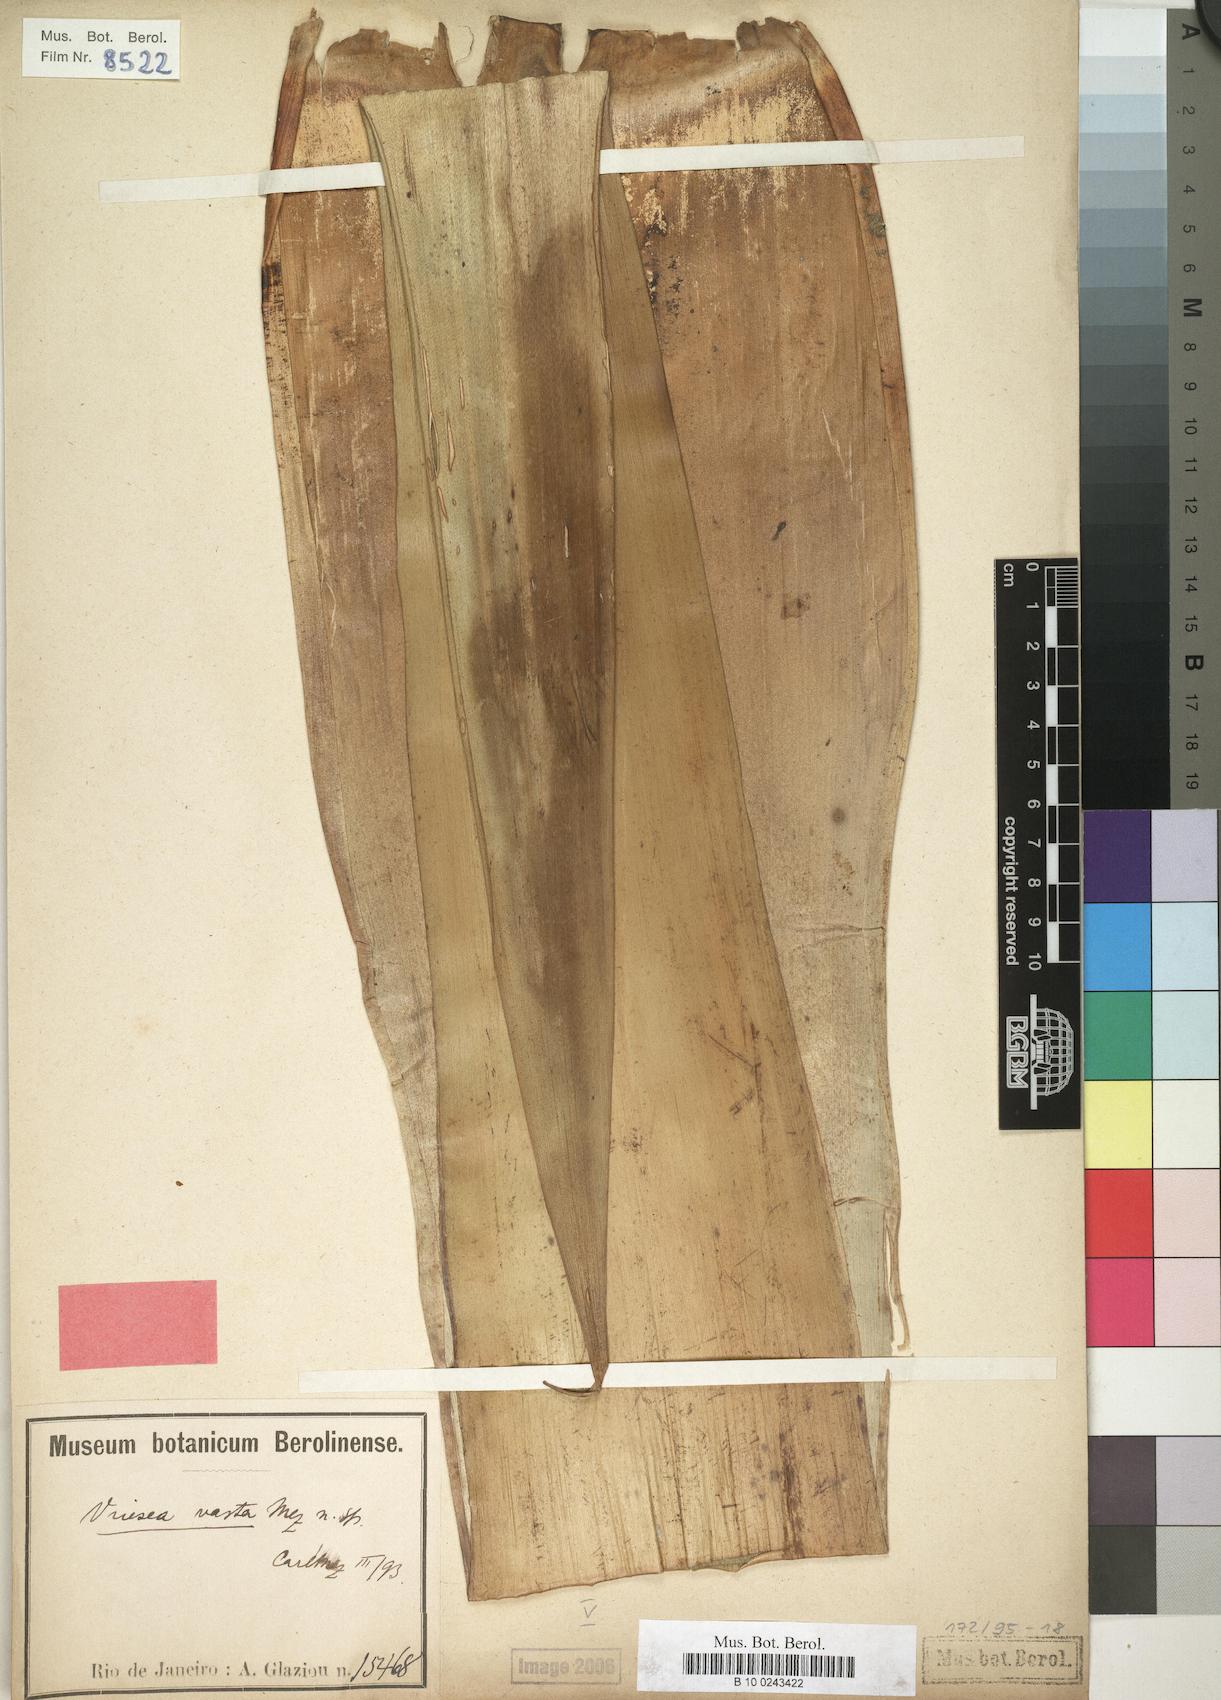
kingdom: Plantae
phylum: Tracheophyta
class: Liliopsida
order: Poales
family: Bromeliaceae
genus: Alcantarea
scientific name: Alcantarea glaziouana
